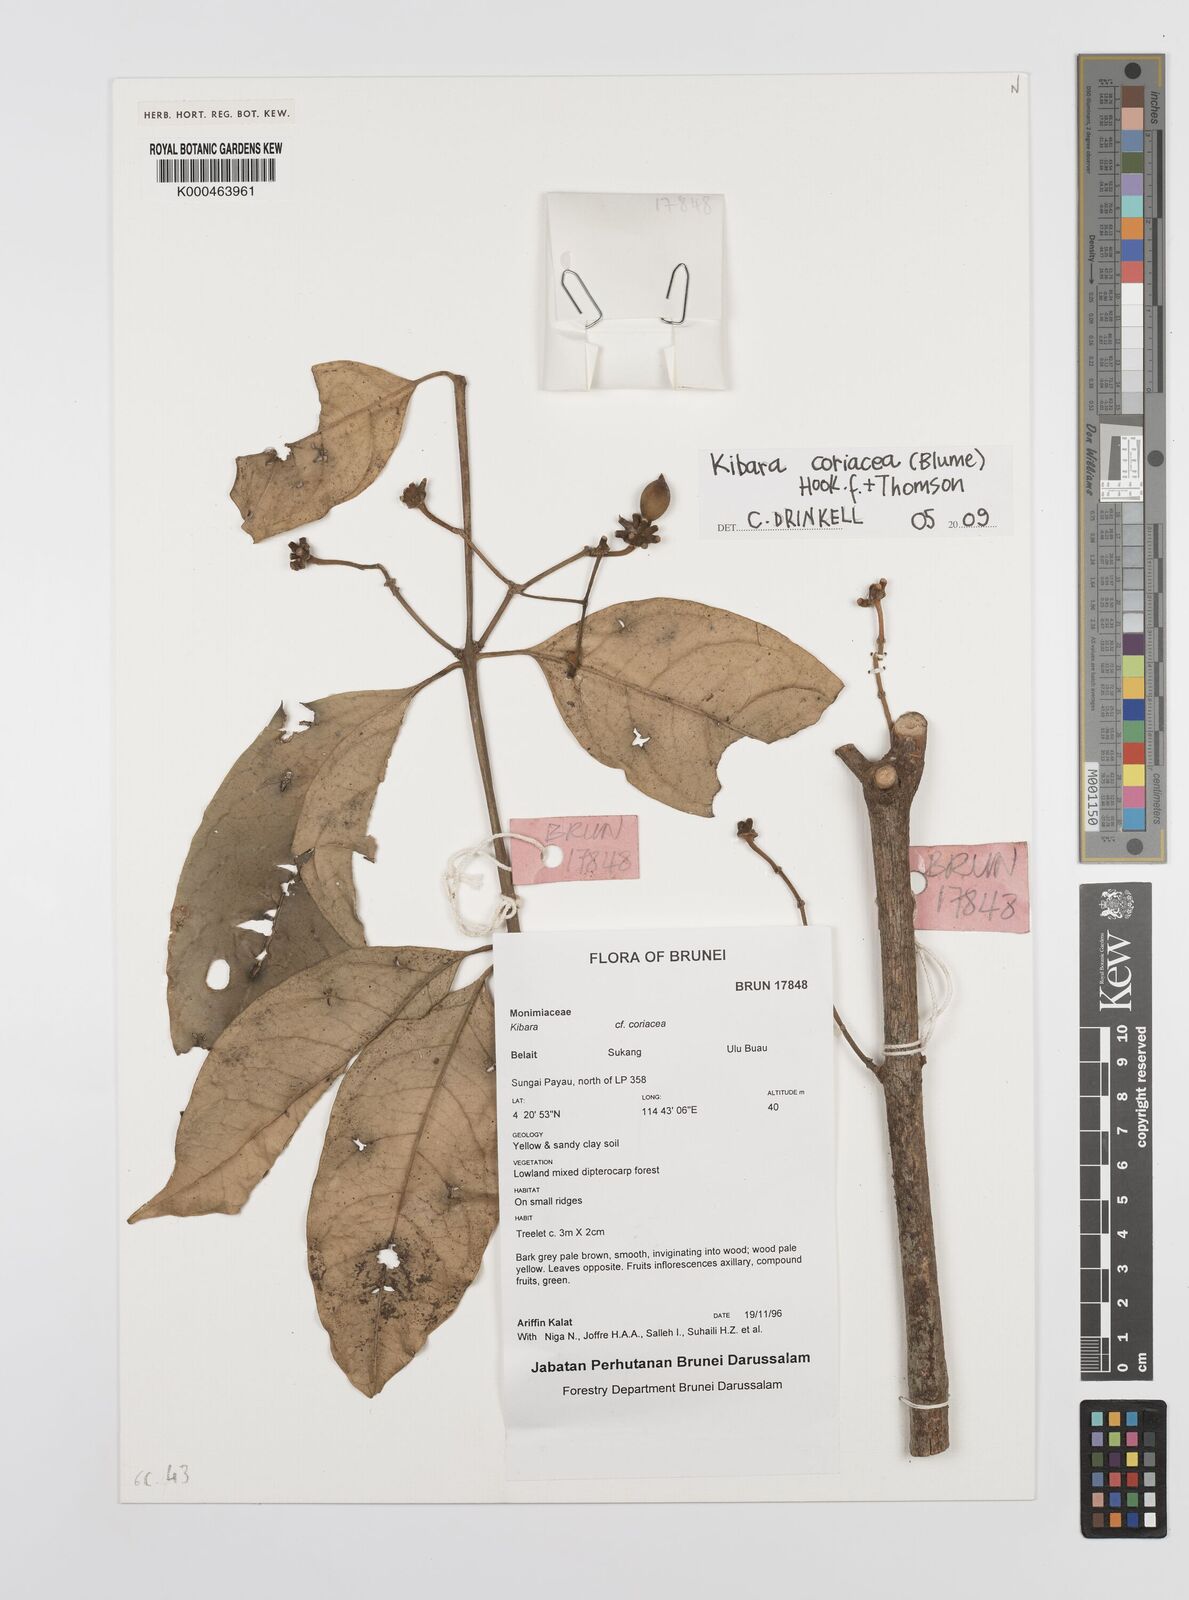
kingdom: Plantae
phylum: Tracheophyta
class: Magnoliopsida
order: Laurales
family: Monimiaceae
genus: Kibara
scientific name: Kibara coriacea
